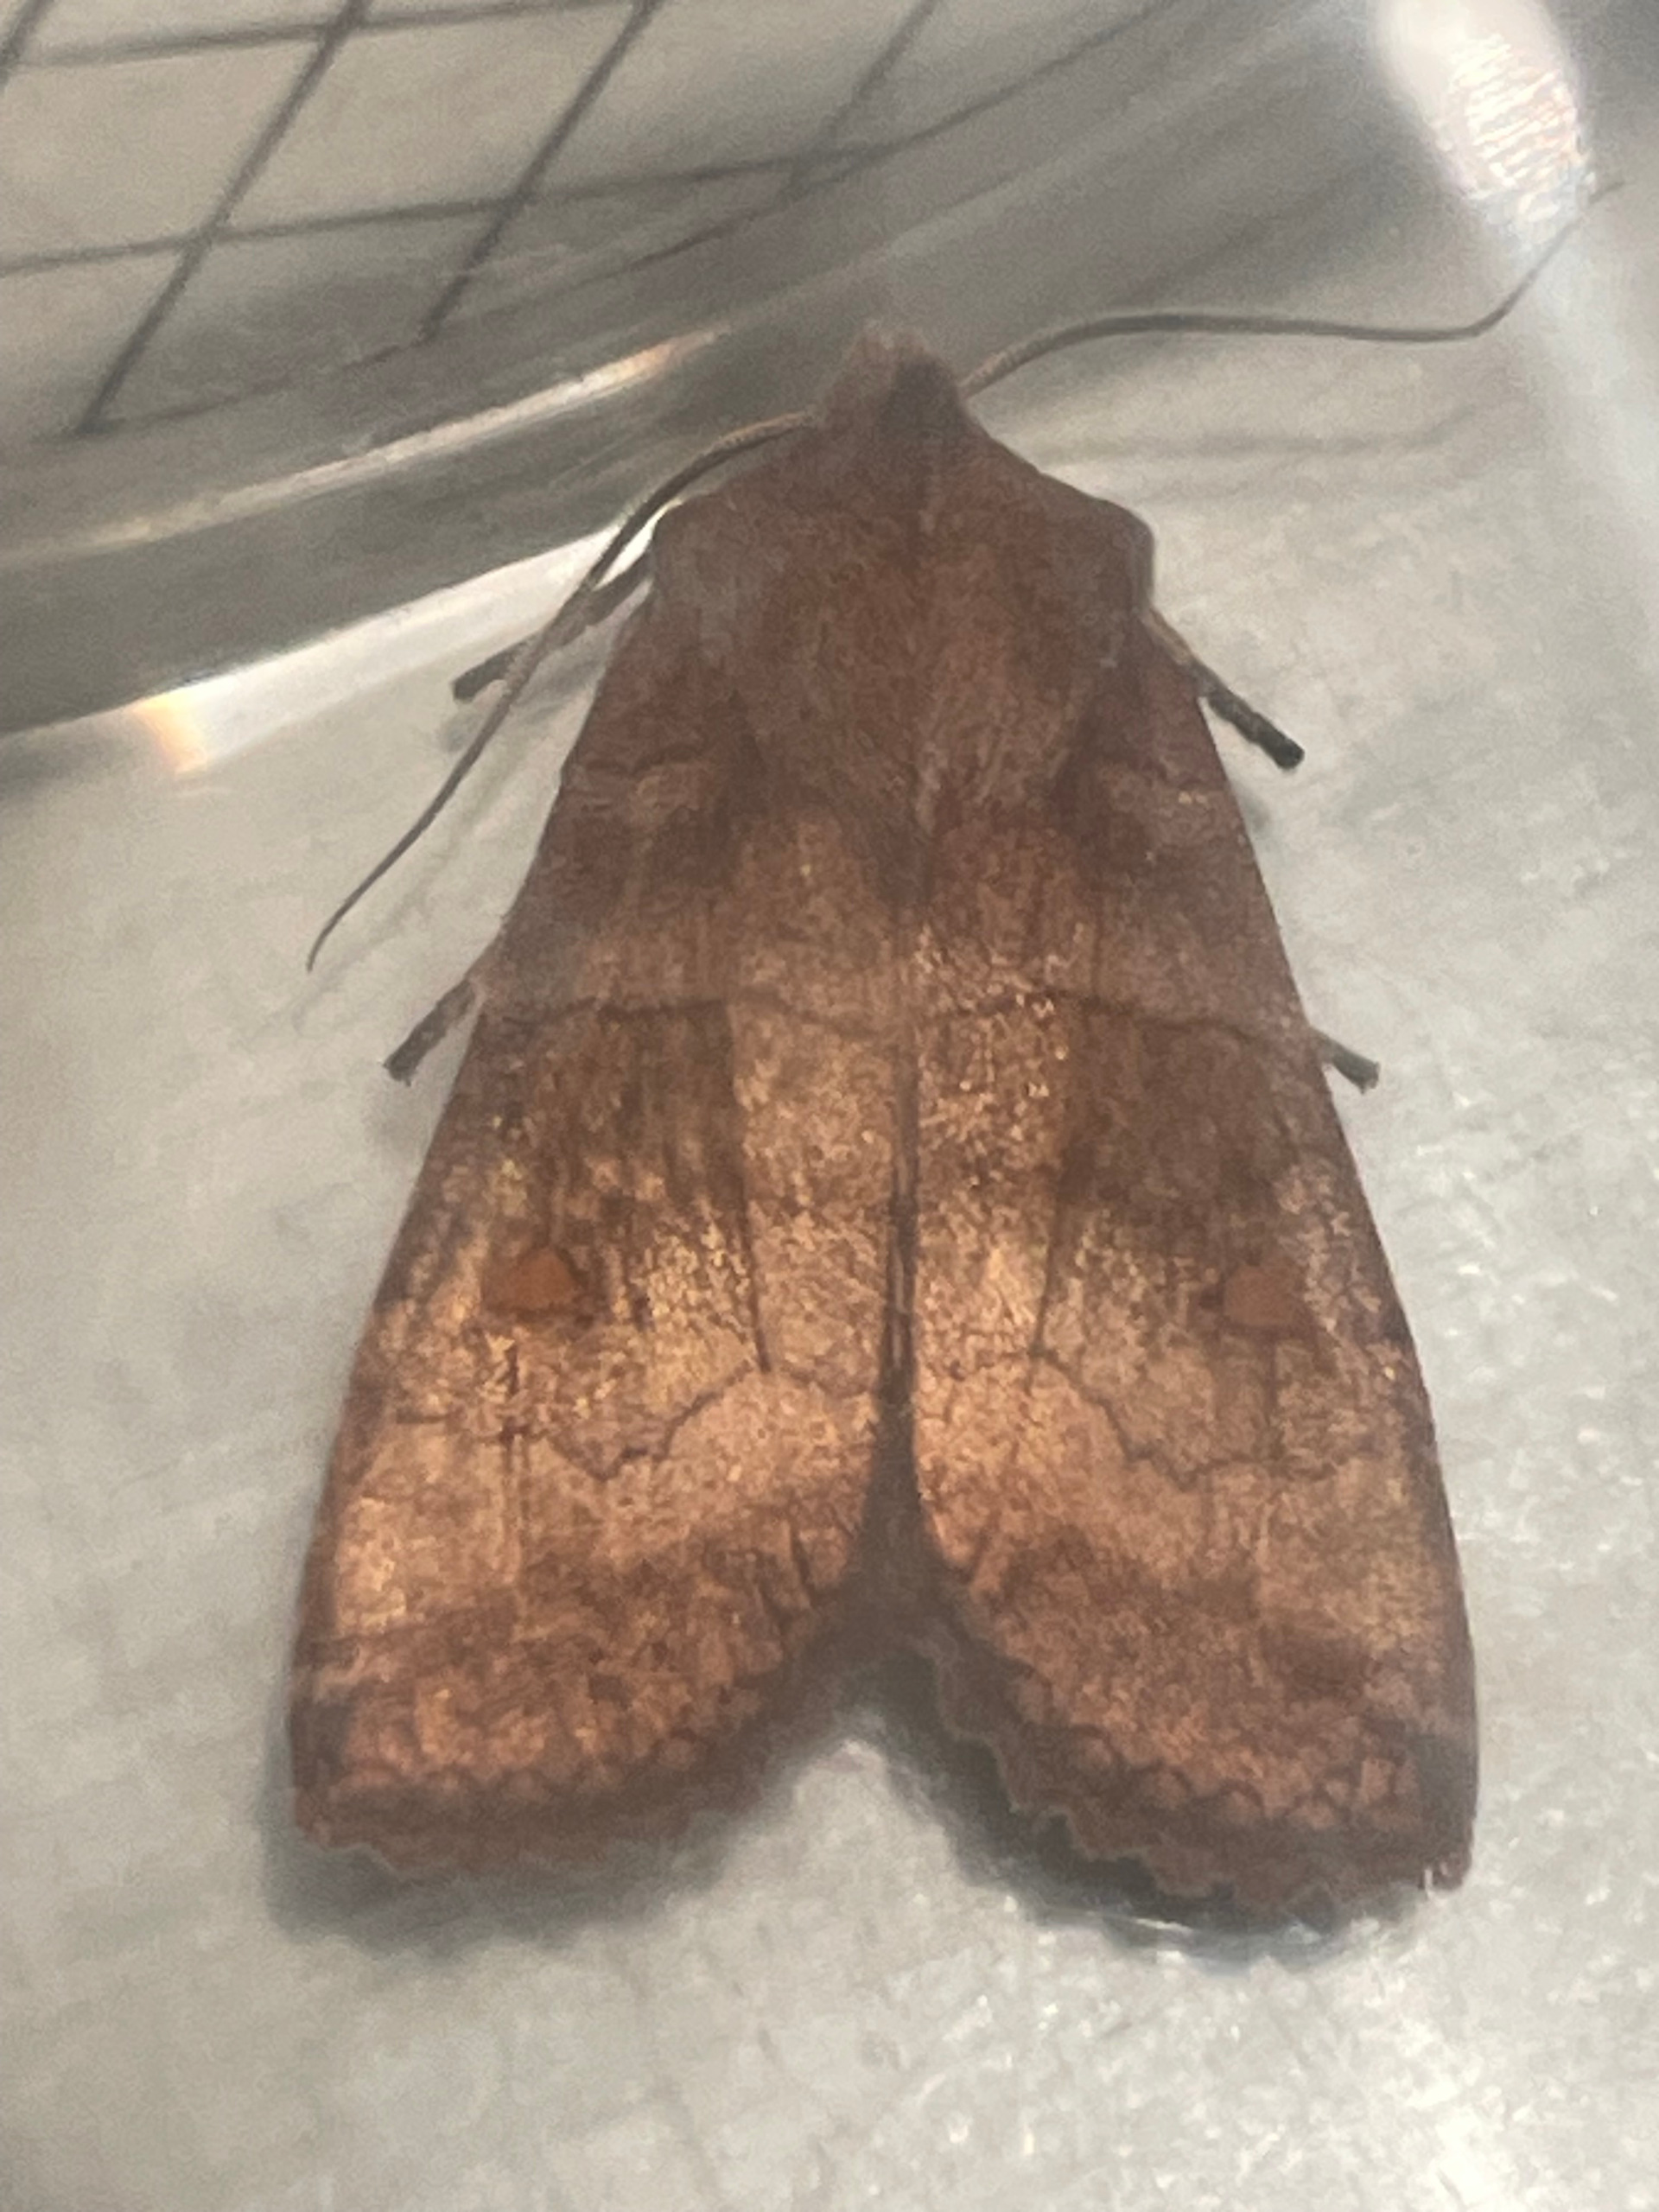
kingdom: Animalia
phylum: Arthropoda
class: Insecta
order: Lepidoptera
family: Noctuidae
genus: Eupsilia
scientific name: Eupsilia transversa
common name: Satellitugle
